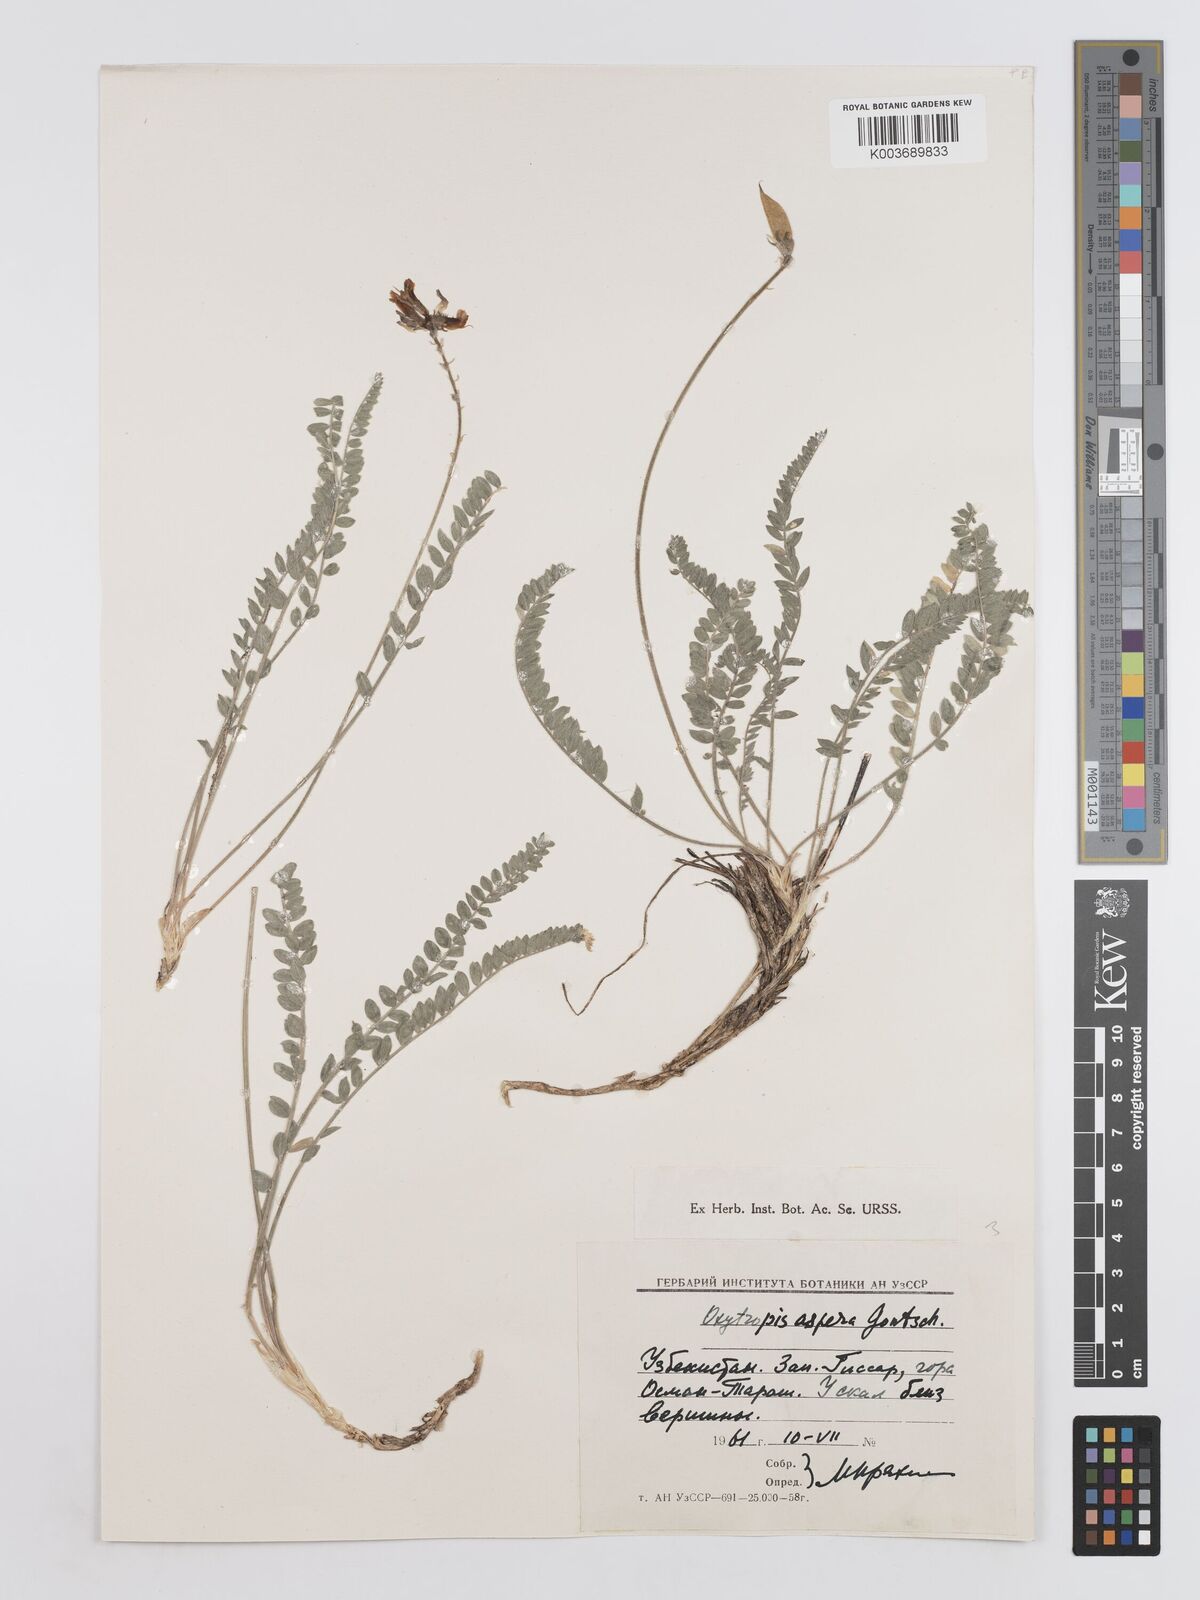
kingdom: Plantae
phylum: Tracheophyta
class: Magnoliopsida
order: Fabales
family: Fabaceae
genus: Oxytropis
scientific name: Oxytropis aspera
